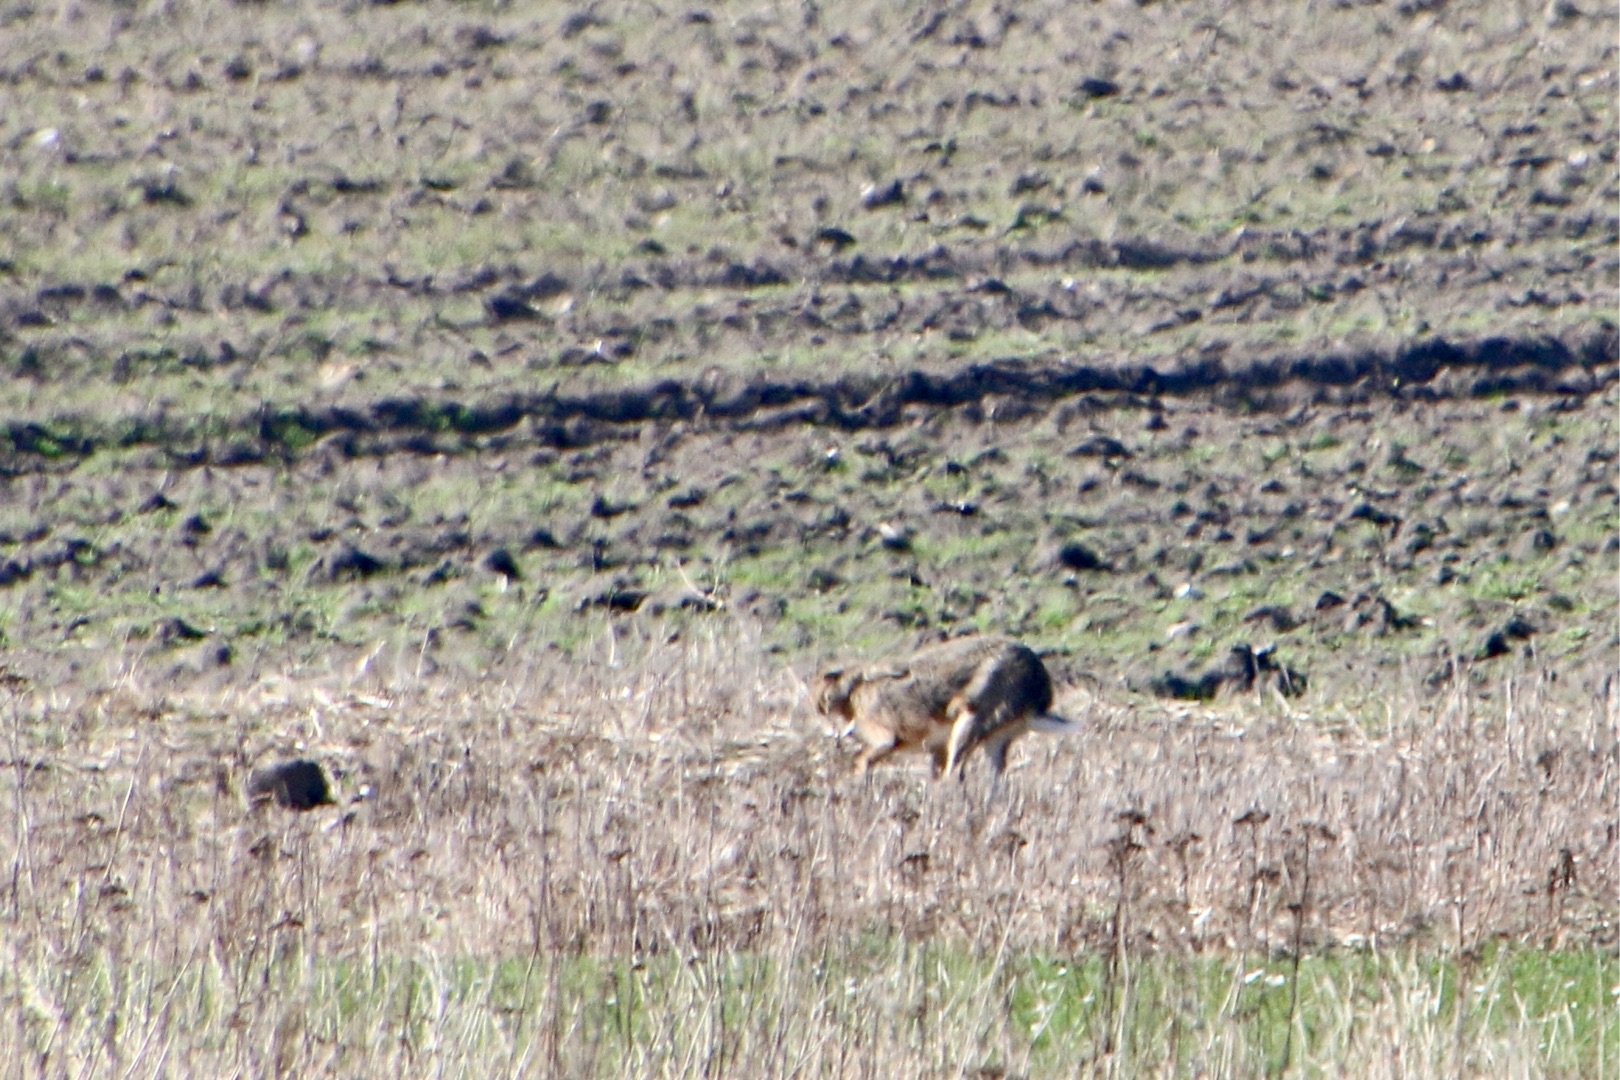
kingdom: Animalia
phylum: Chordata
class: Mammalia
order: Lagomorpha
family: Leporidae
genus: Lepus
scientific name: Lepus europaeus
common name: Hare
